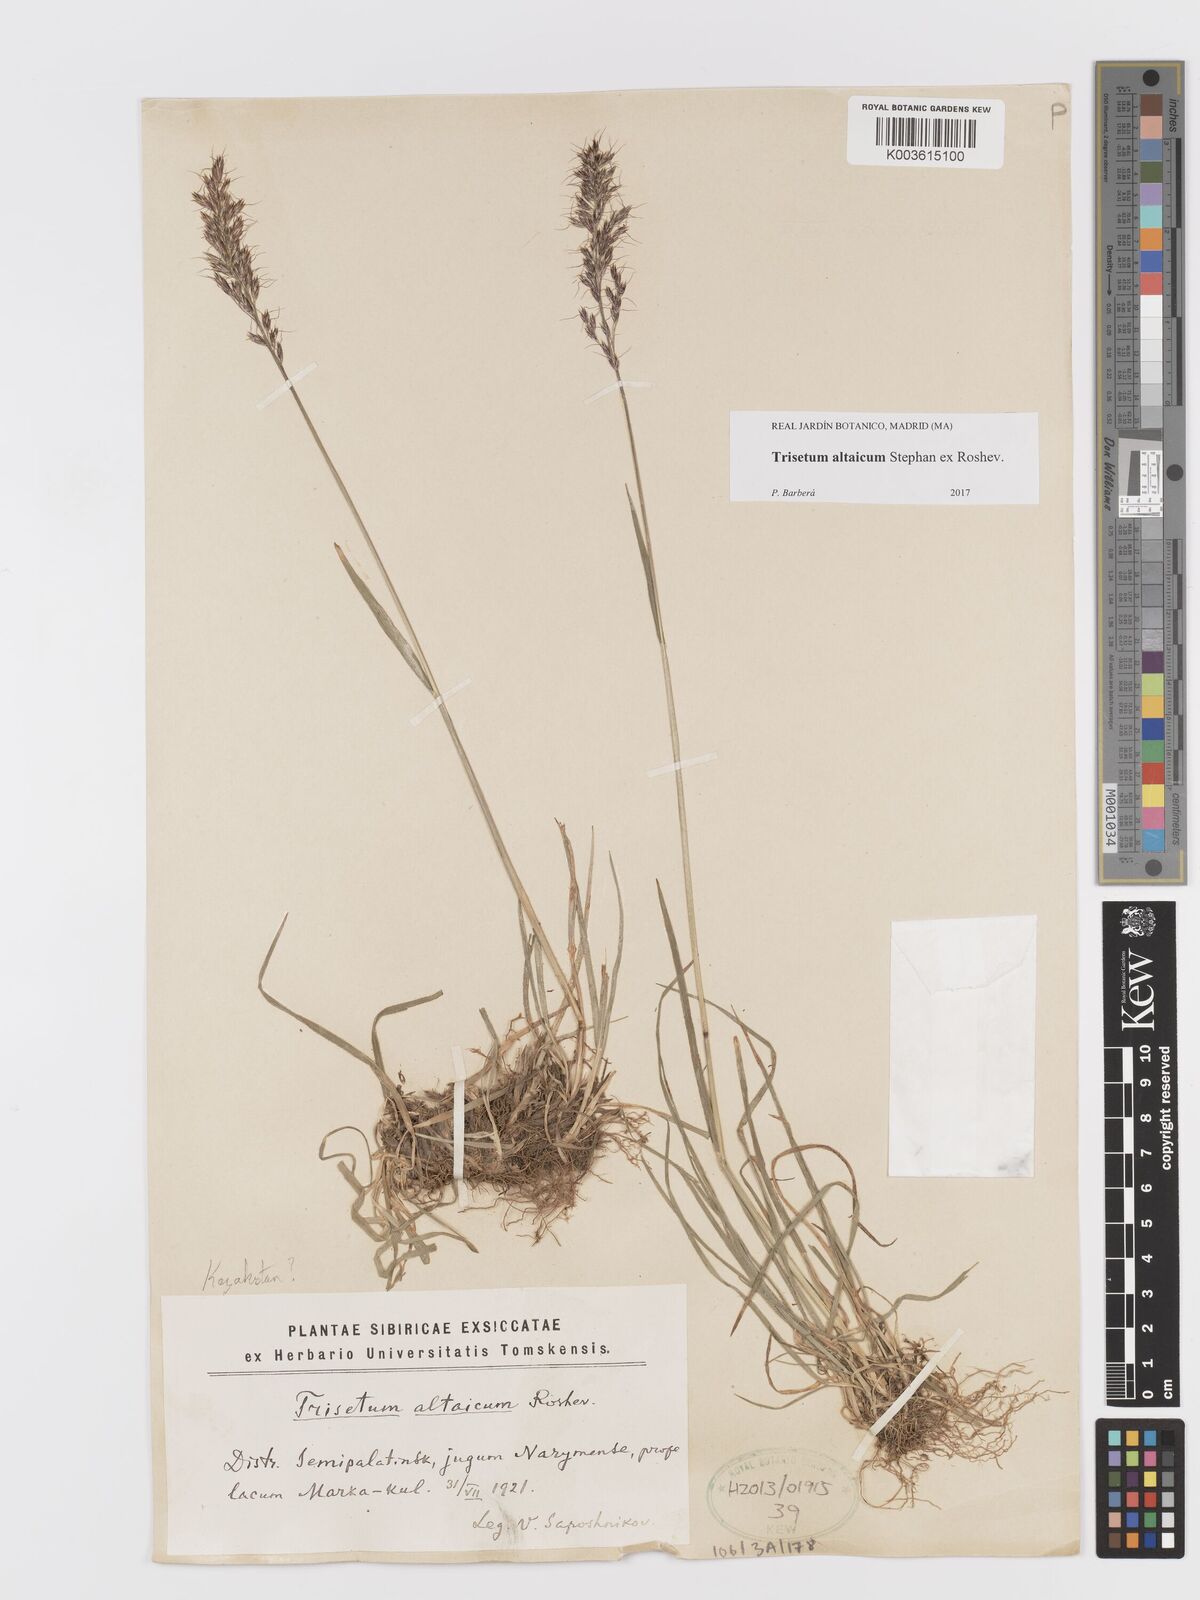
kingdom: Plantae
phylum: Tracheophyta
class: Liliopsida
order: Poales
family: Poaceae
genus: Trisetum
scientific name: Trisetum altaicum
